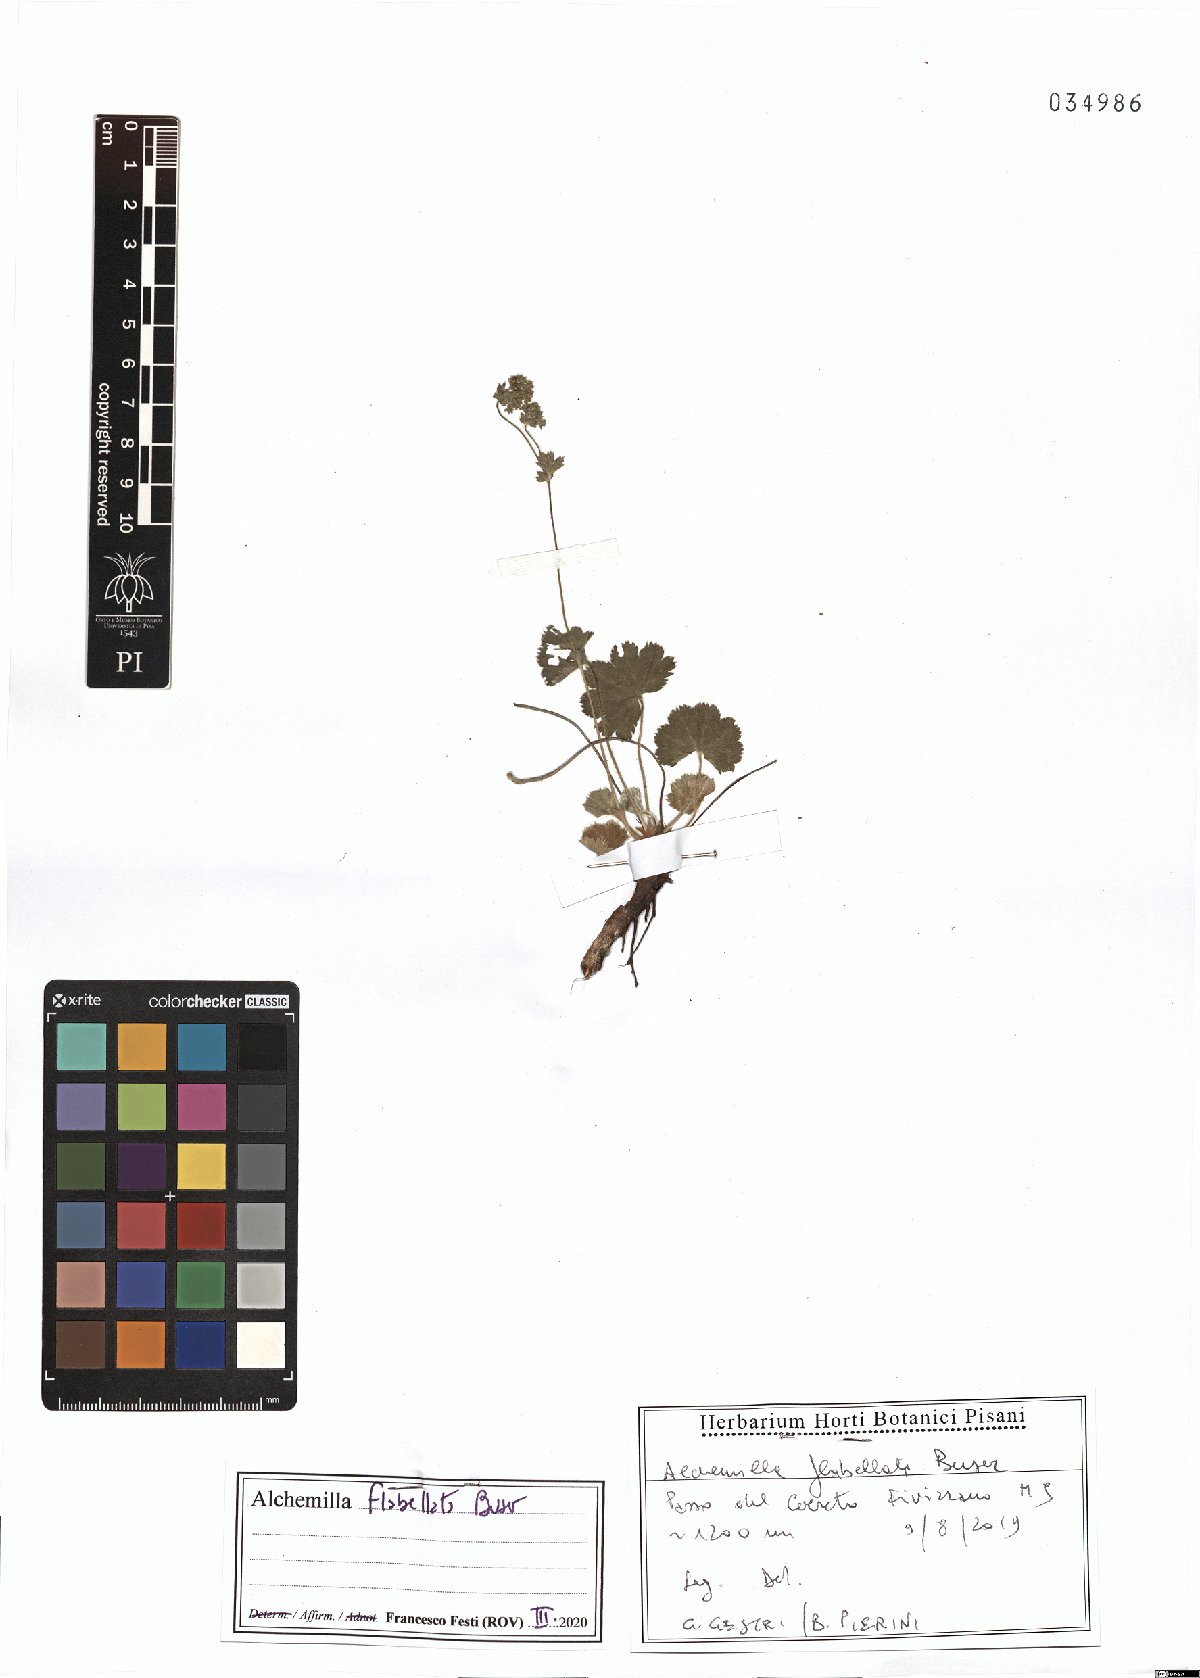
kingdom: Plantae
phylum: Tracheophyta
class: Magnoliopsida
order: Rosales
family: Rosaceae
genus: Alchemilla
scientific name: Alchemilla flabellata
